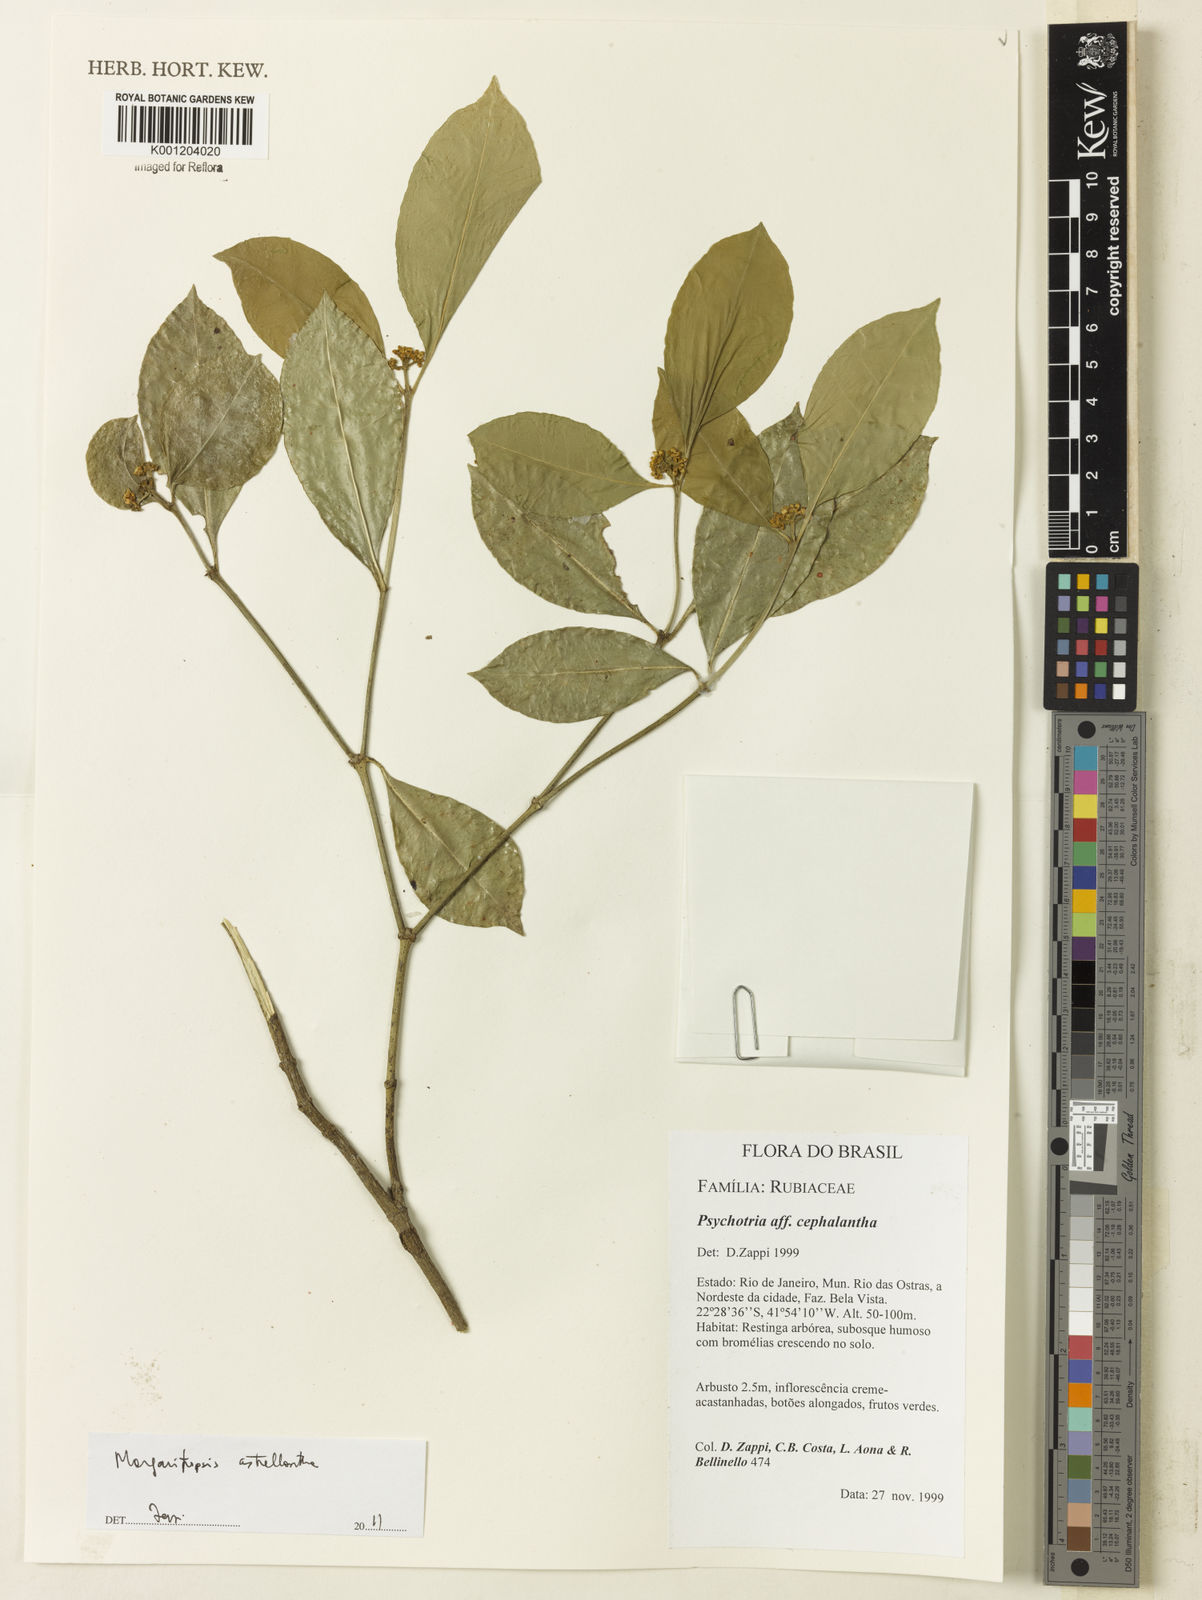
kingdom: Plantae
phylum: Tracheophyta
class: Magnoliopsida
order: Gentianales
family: Rubiaceae
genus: Eumachia
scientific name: Eumachia astrellantha
